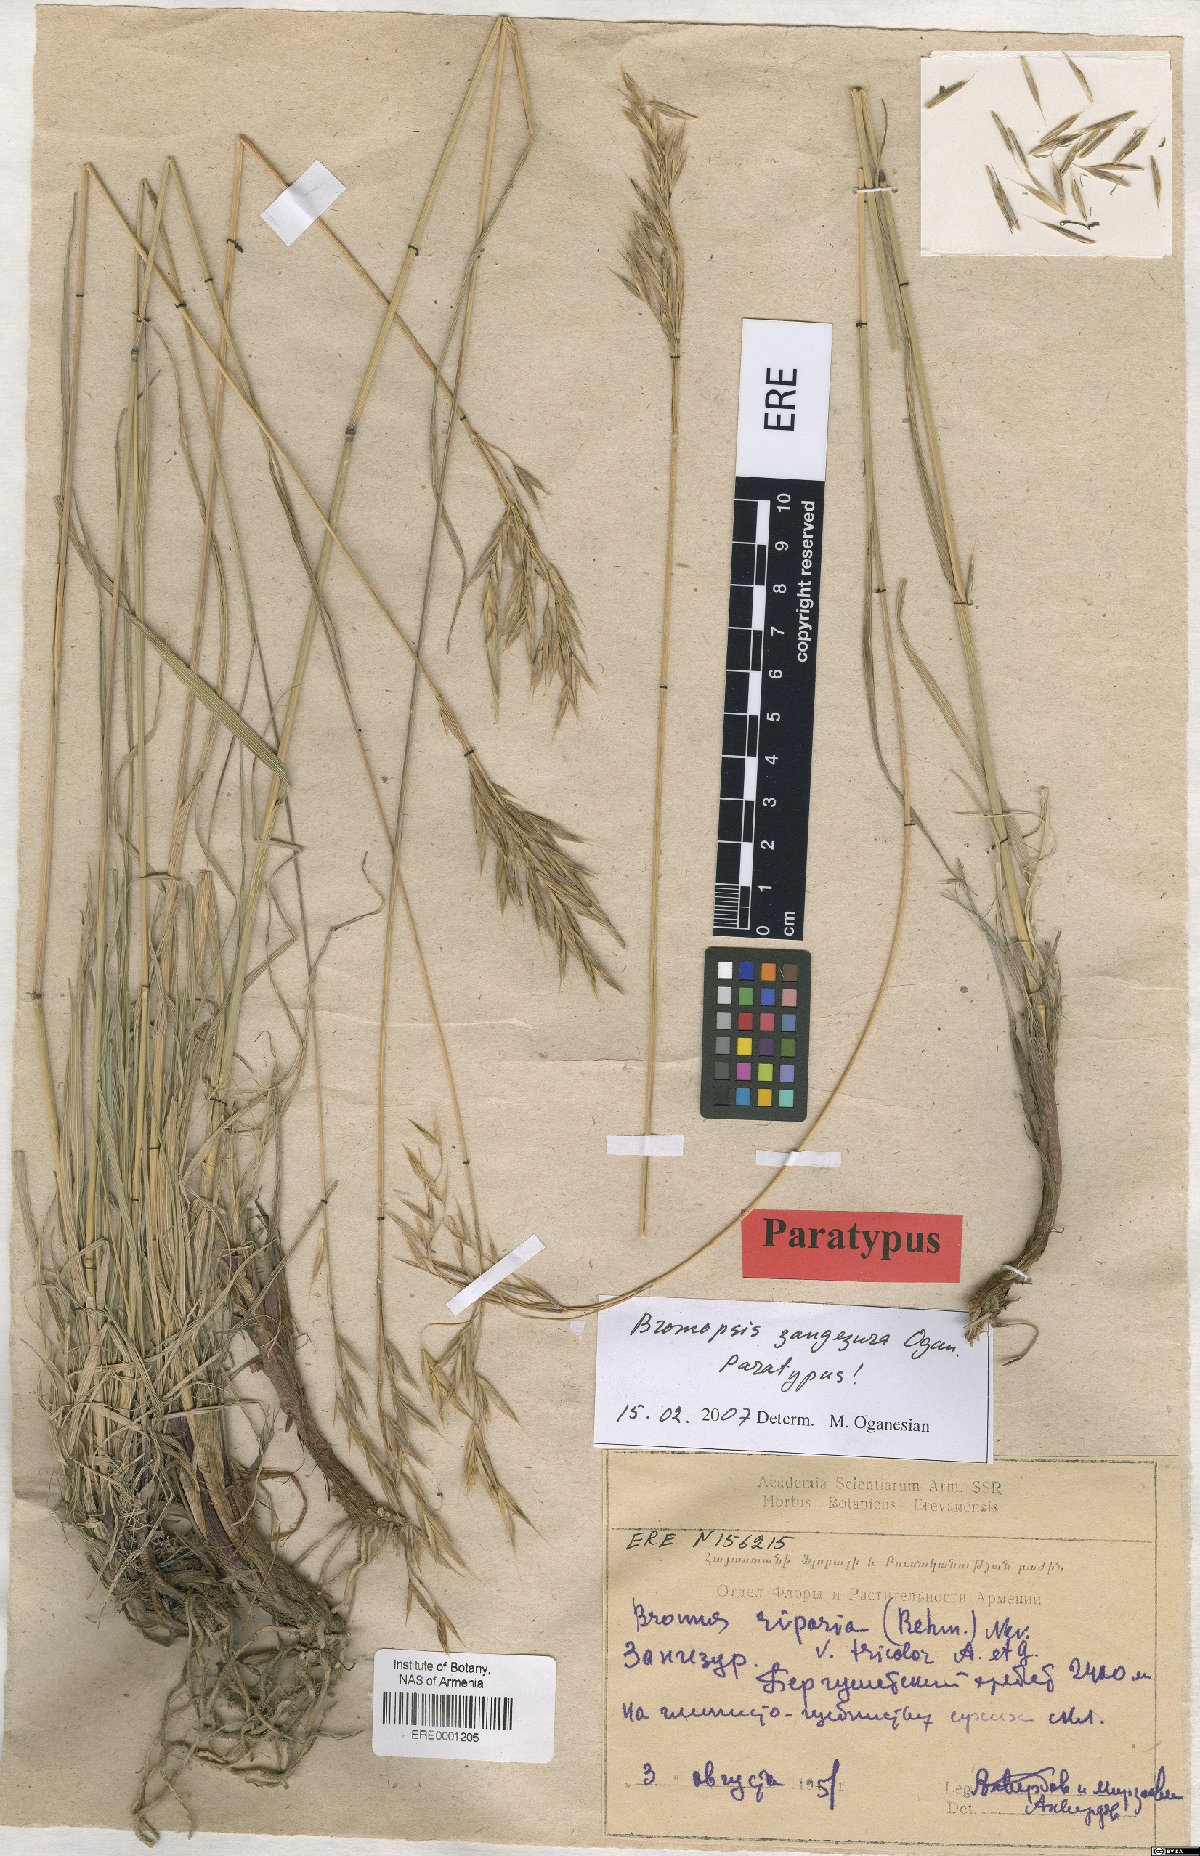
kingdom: Plantae
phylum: Tracheophyta
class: Liliopsida
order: Poales
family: Poaceae
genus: Bromus
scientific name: Bromus erectus
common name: Erect brome
